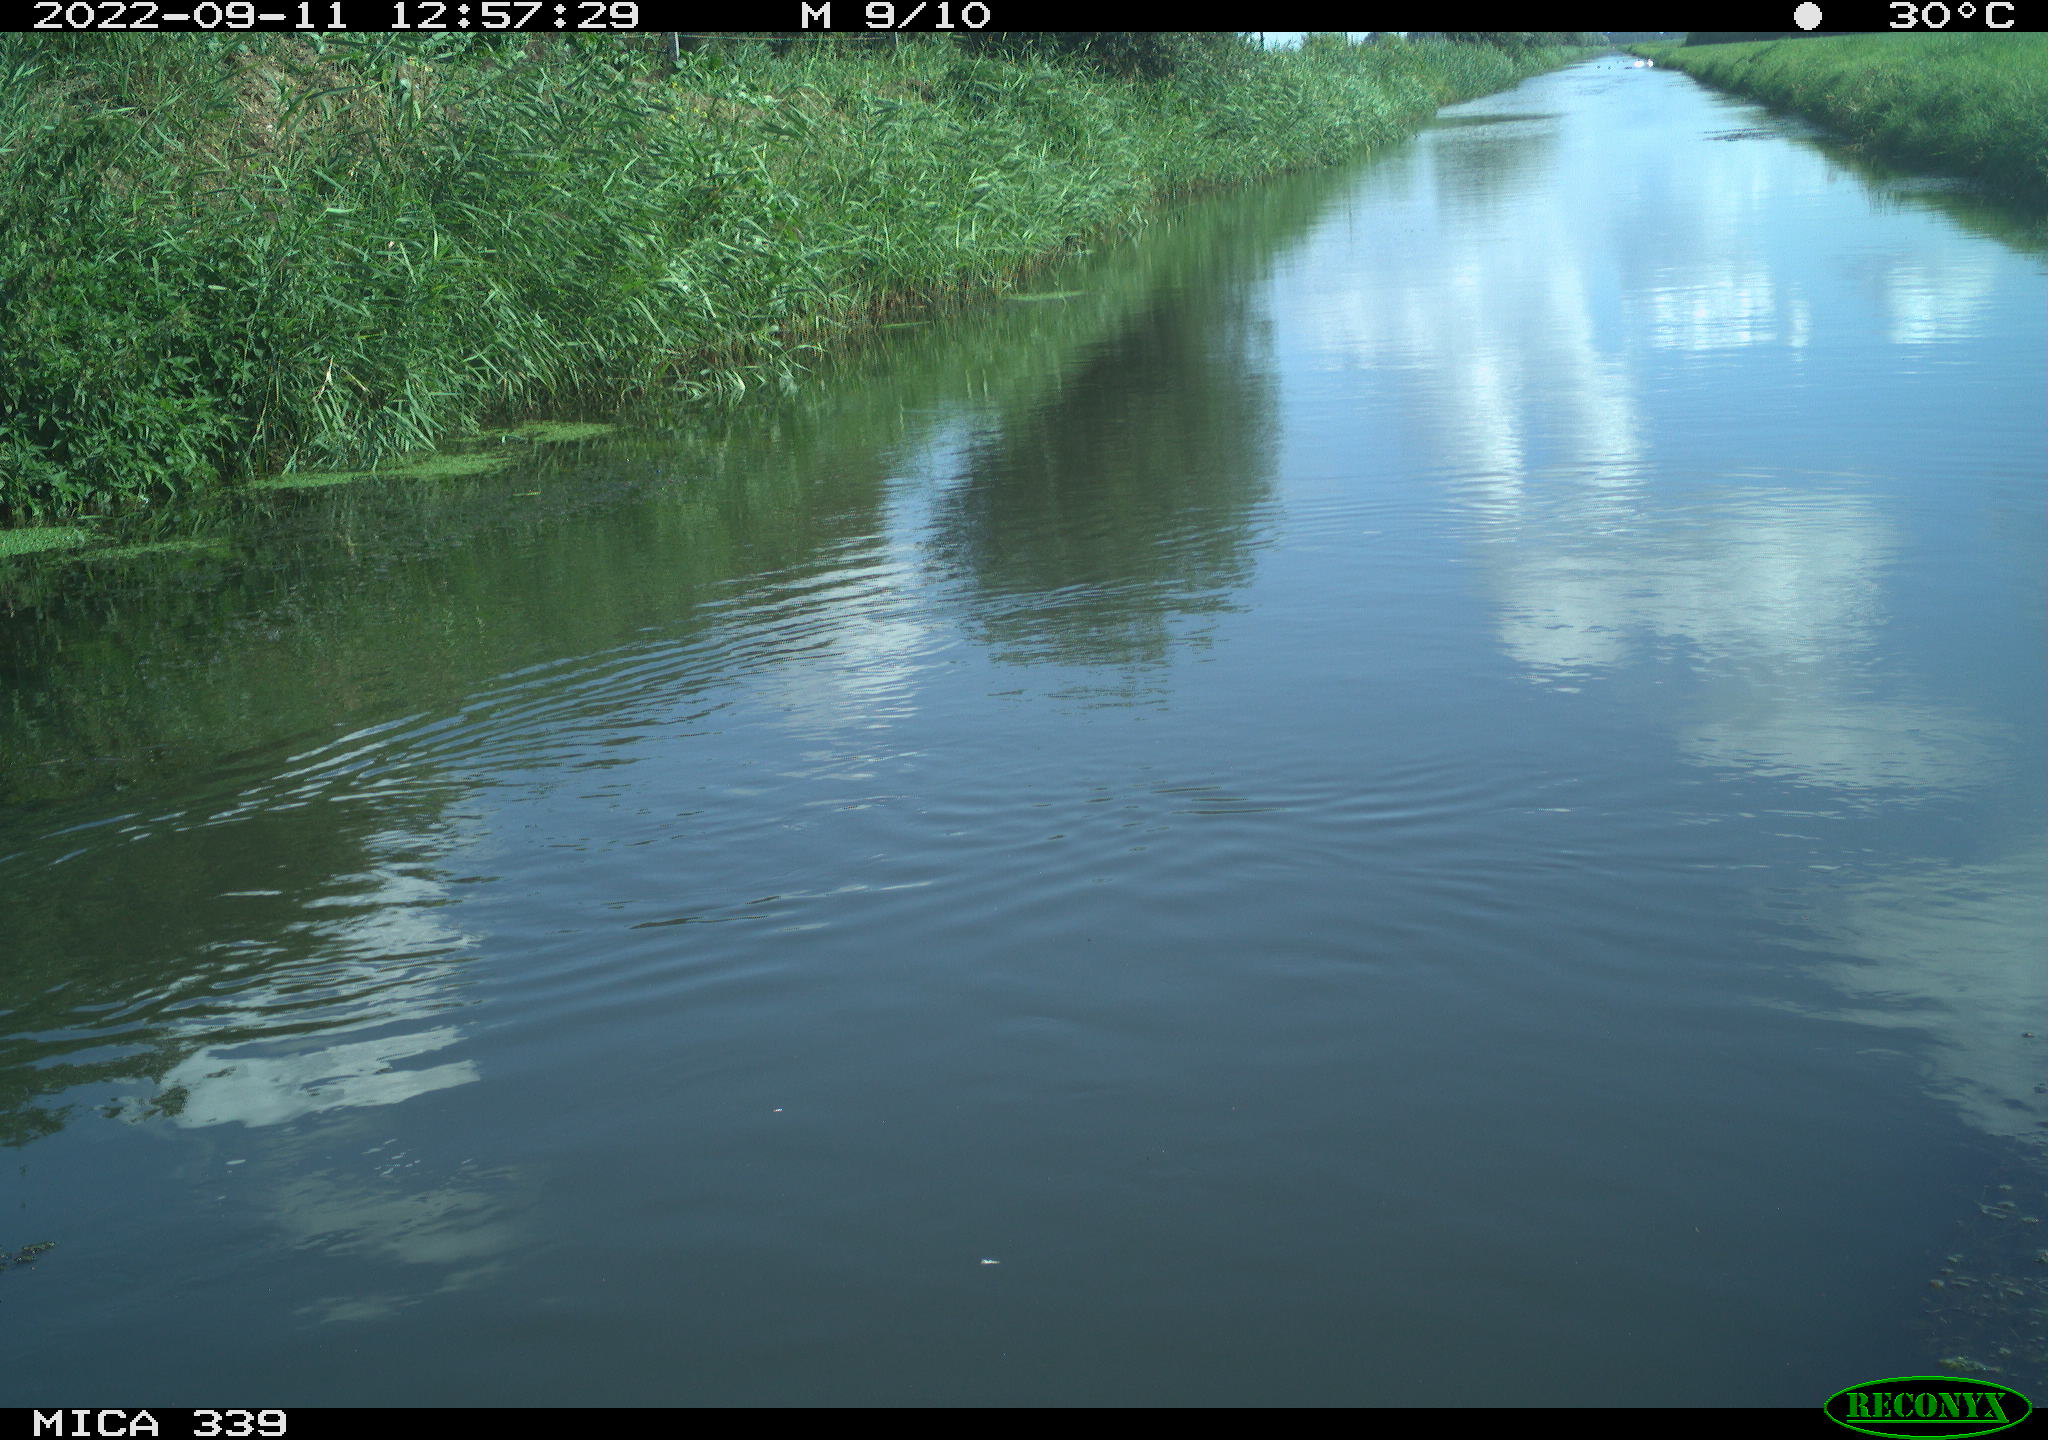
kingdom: Animalia
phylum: Chordata
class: Aves
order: Anseriformes
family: Anatidae
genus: Anas
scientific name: Anas
